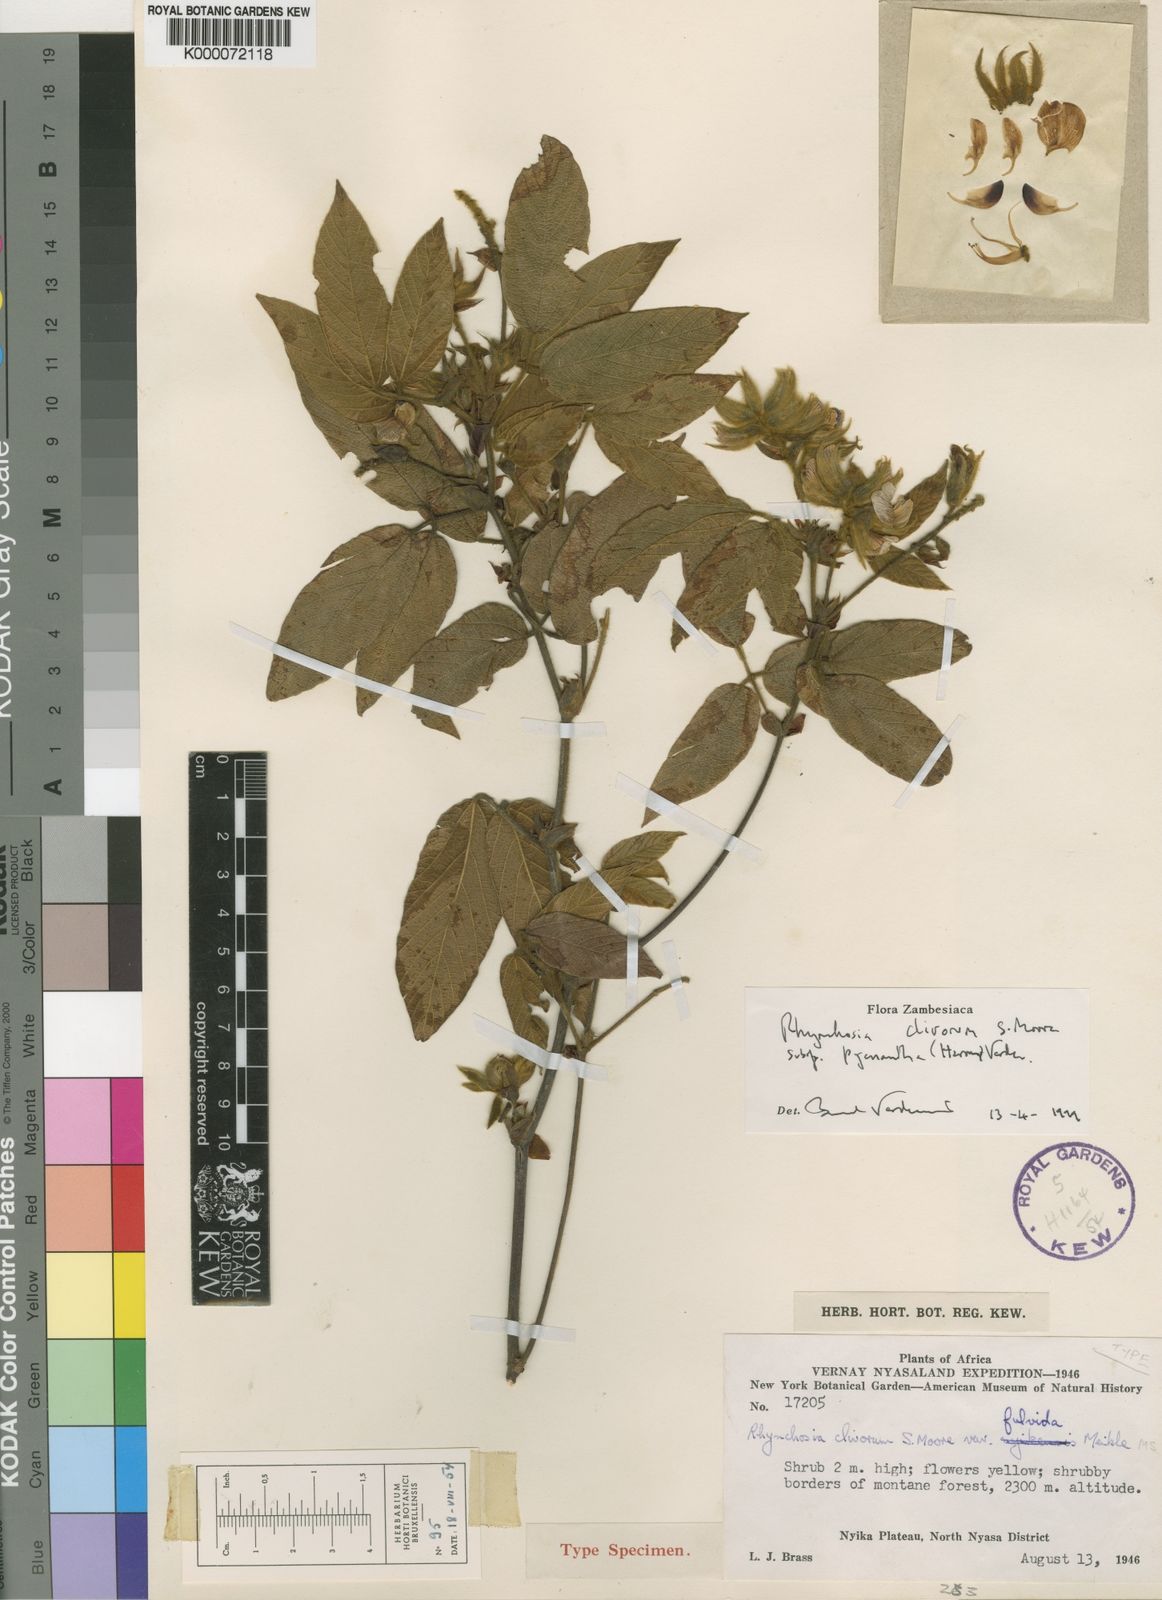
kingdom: Plantae
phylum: Tracheophyta
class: Magnoliopsida
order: Fabales
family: Fabaceae
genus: Rhynchosia
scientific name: Rhynchosia clivorum
